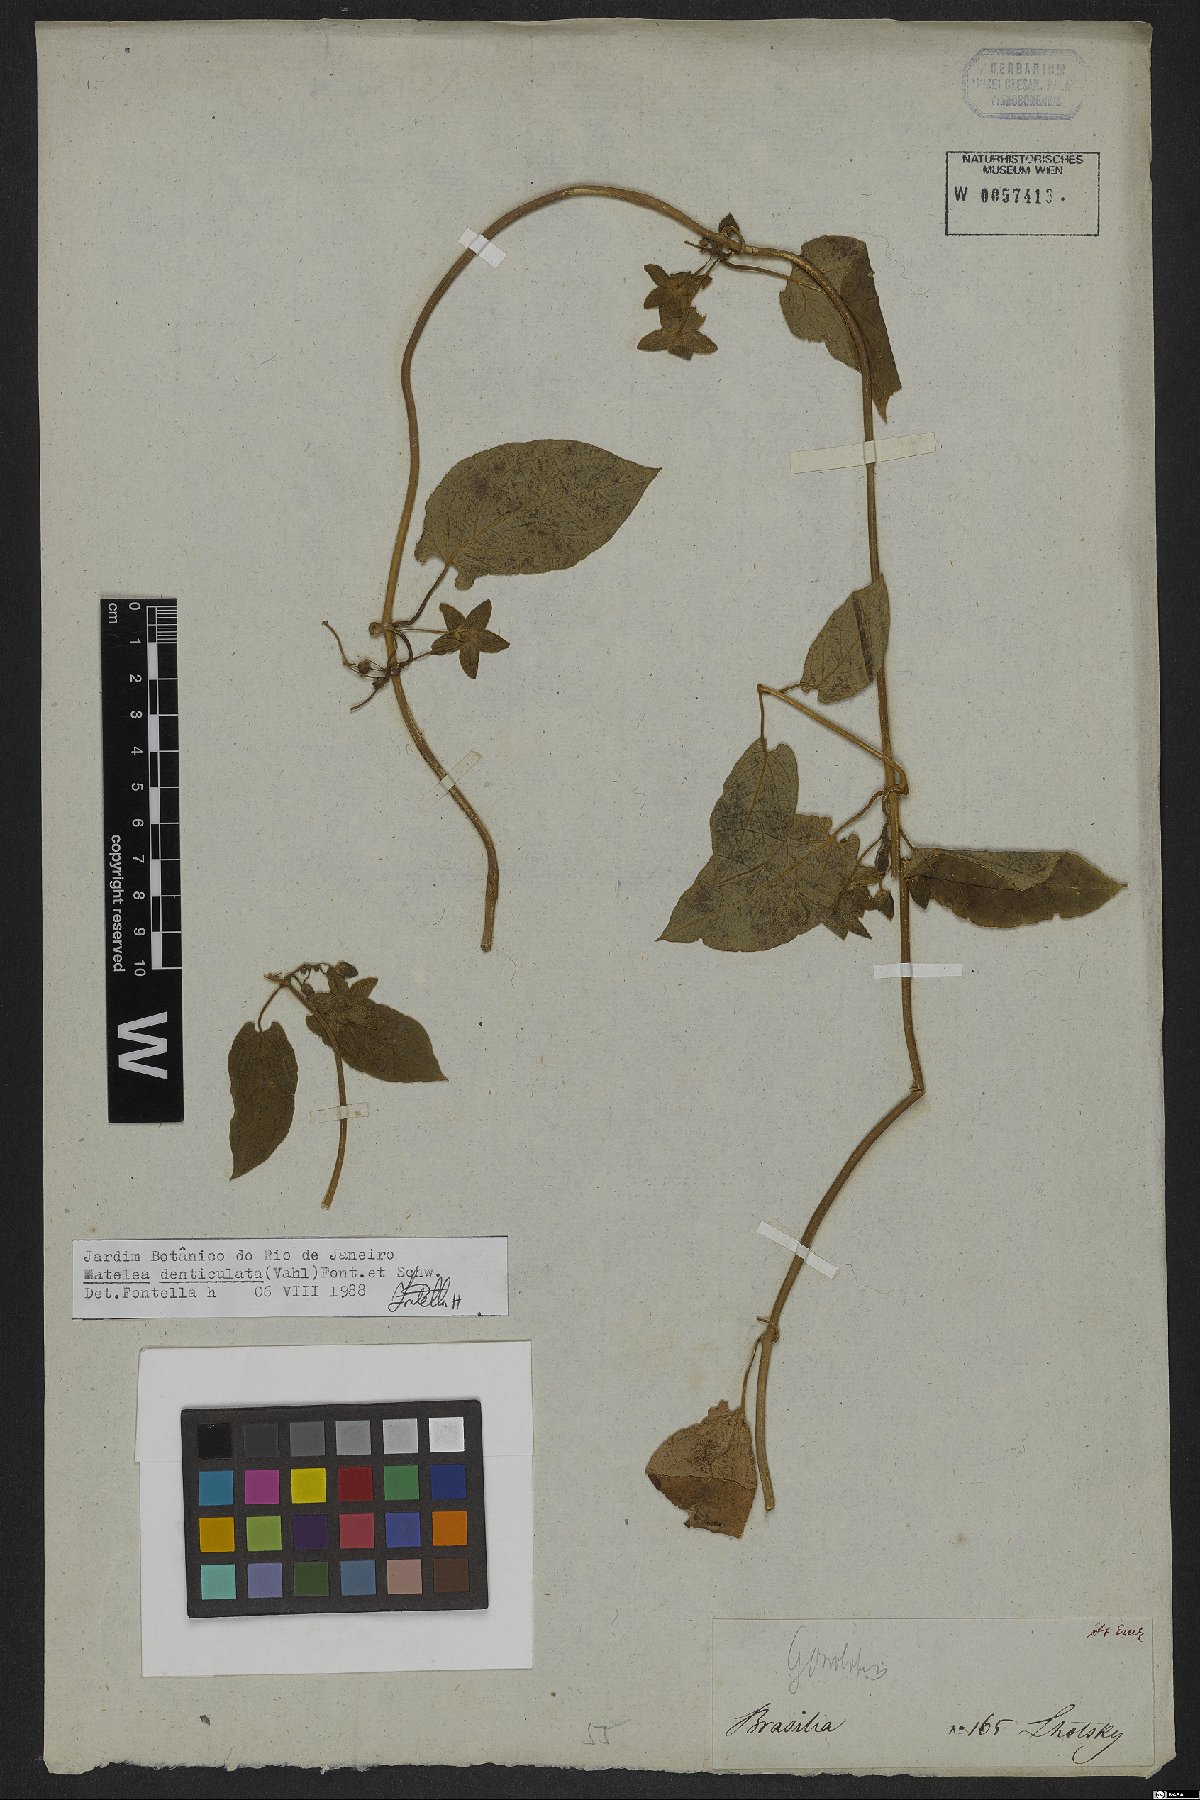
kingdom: Plantae
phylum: Tracheophyta
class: Magnoliopsida
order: Gentianales
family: Apocynaceae
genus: Chloropetalum
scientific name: Chloropetalum denticulatum
